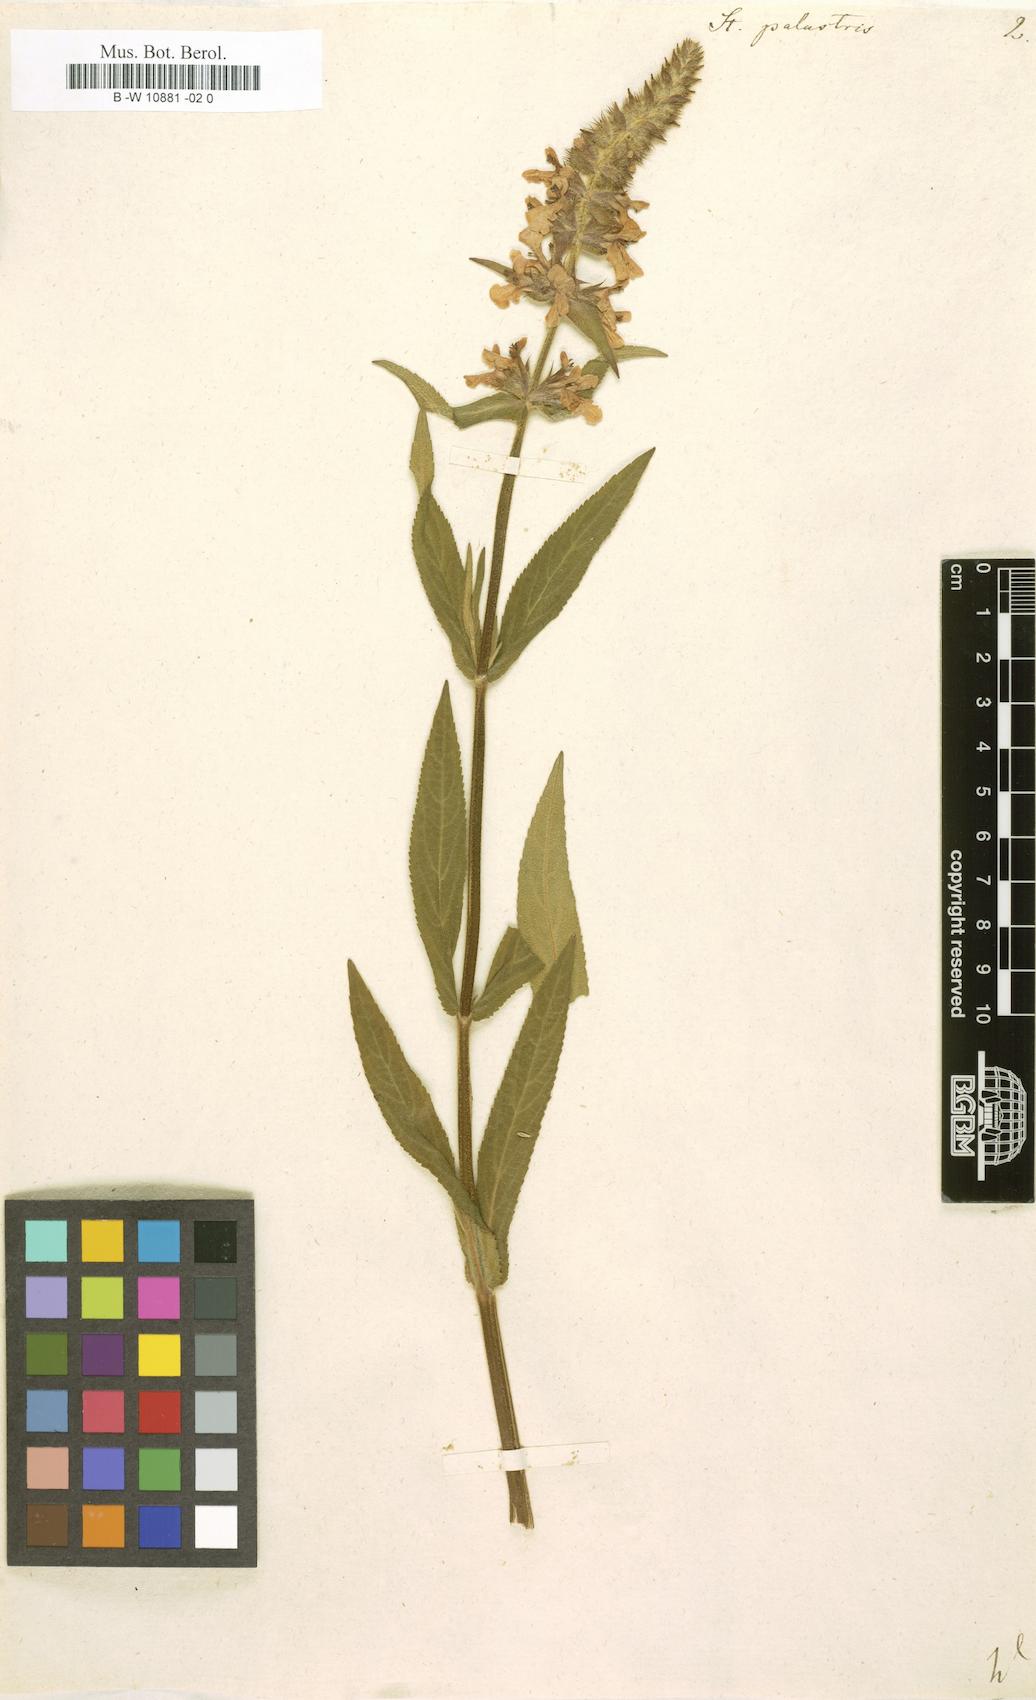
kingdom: Plantae
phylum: Tracheophyta
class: Magnoliopsida
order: Lamiales
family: Lamiaceae
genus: Stachys
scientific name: Stachys palustris
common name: Marsh woundwort
